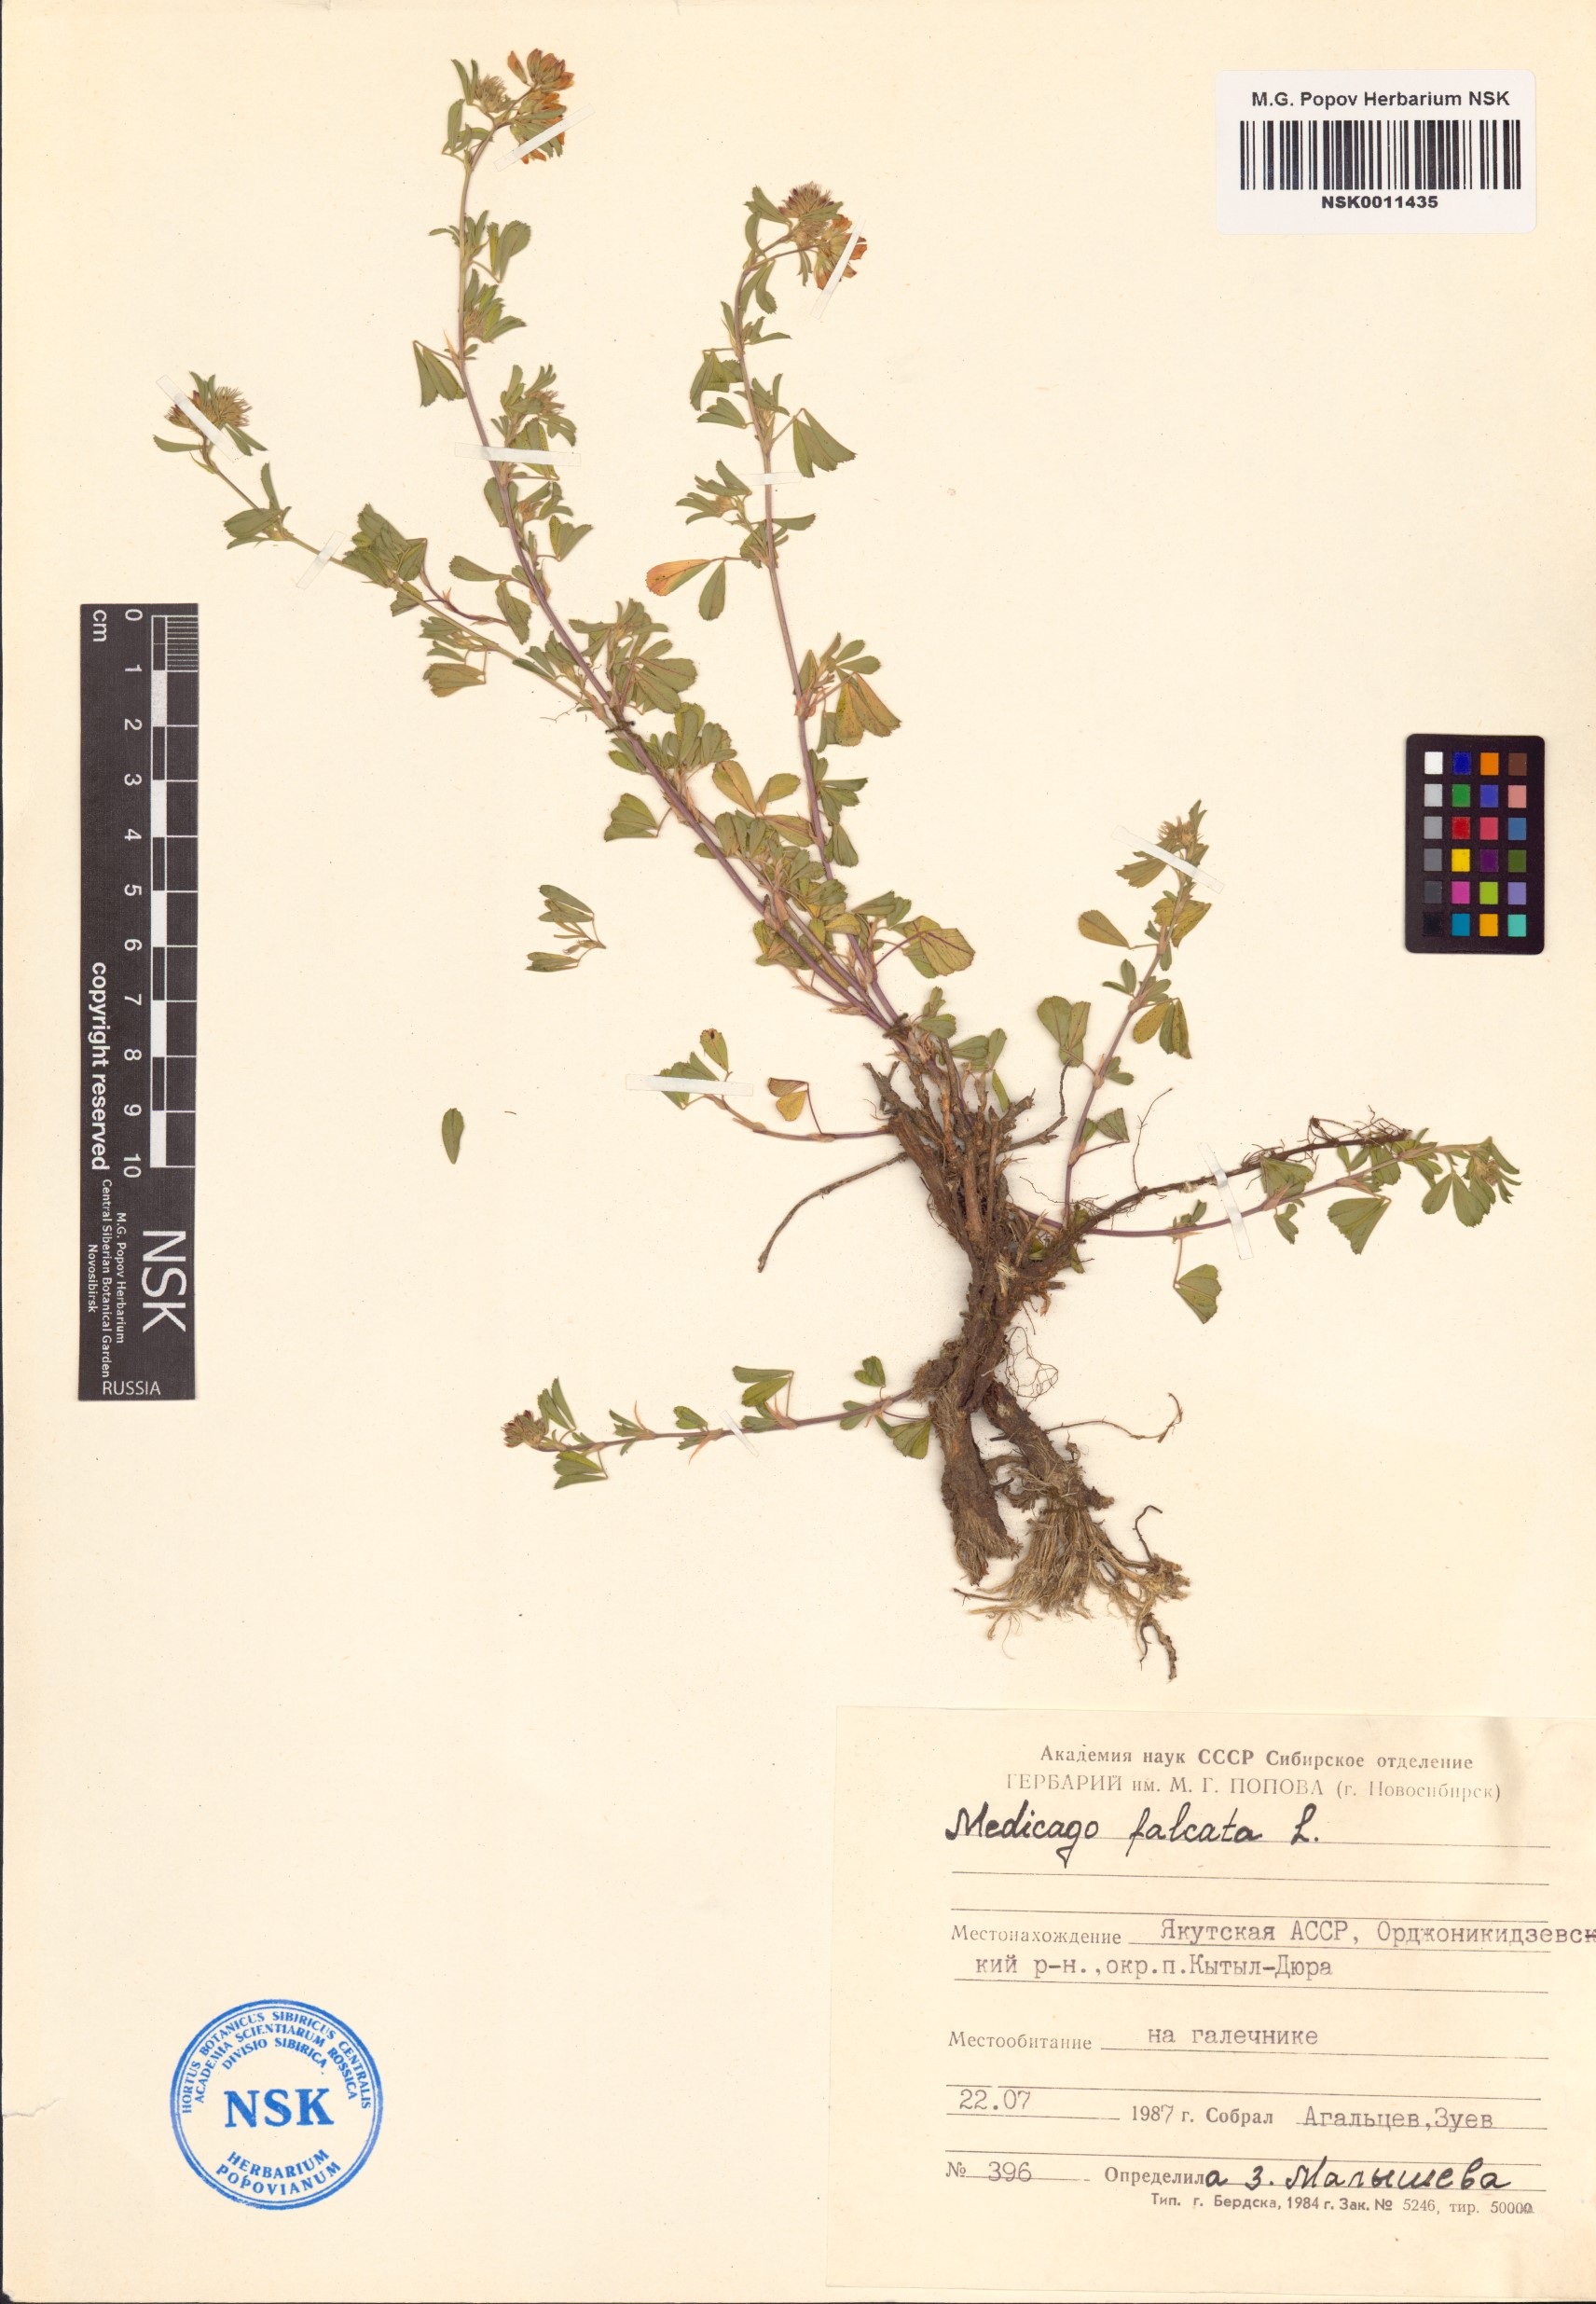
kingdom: Plantae
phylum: Tracheophyta
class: Magnoliopsida
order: Fabales
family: Fabaceae
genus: Medicago
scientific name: Medicago falcata
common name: Sickle medick
